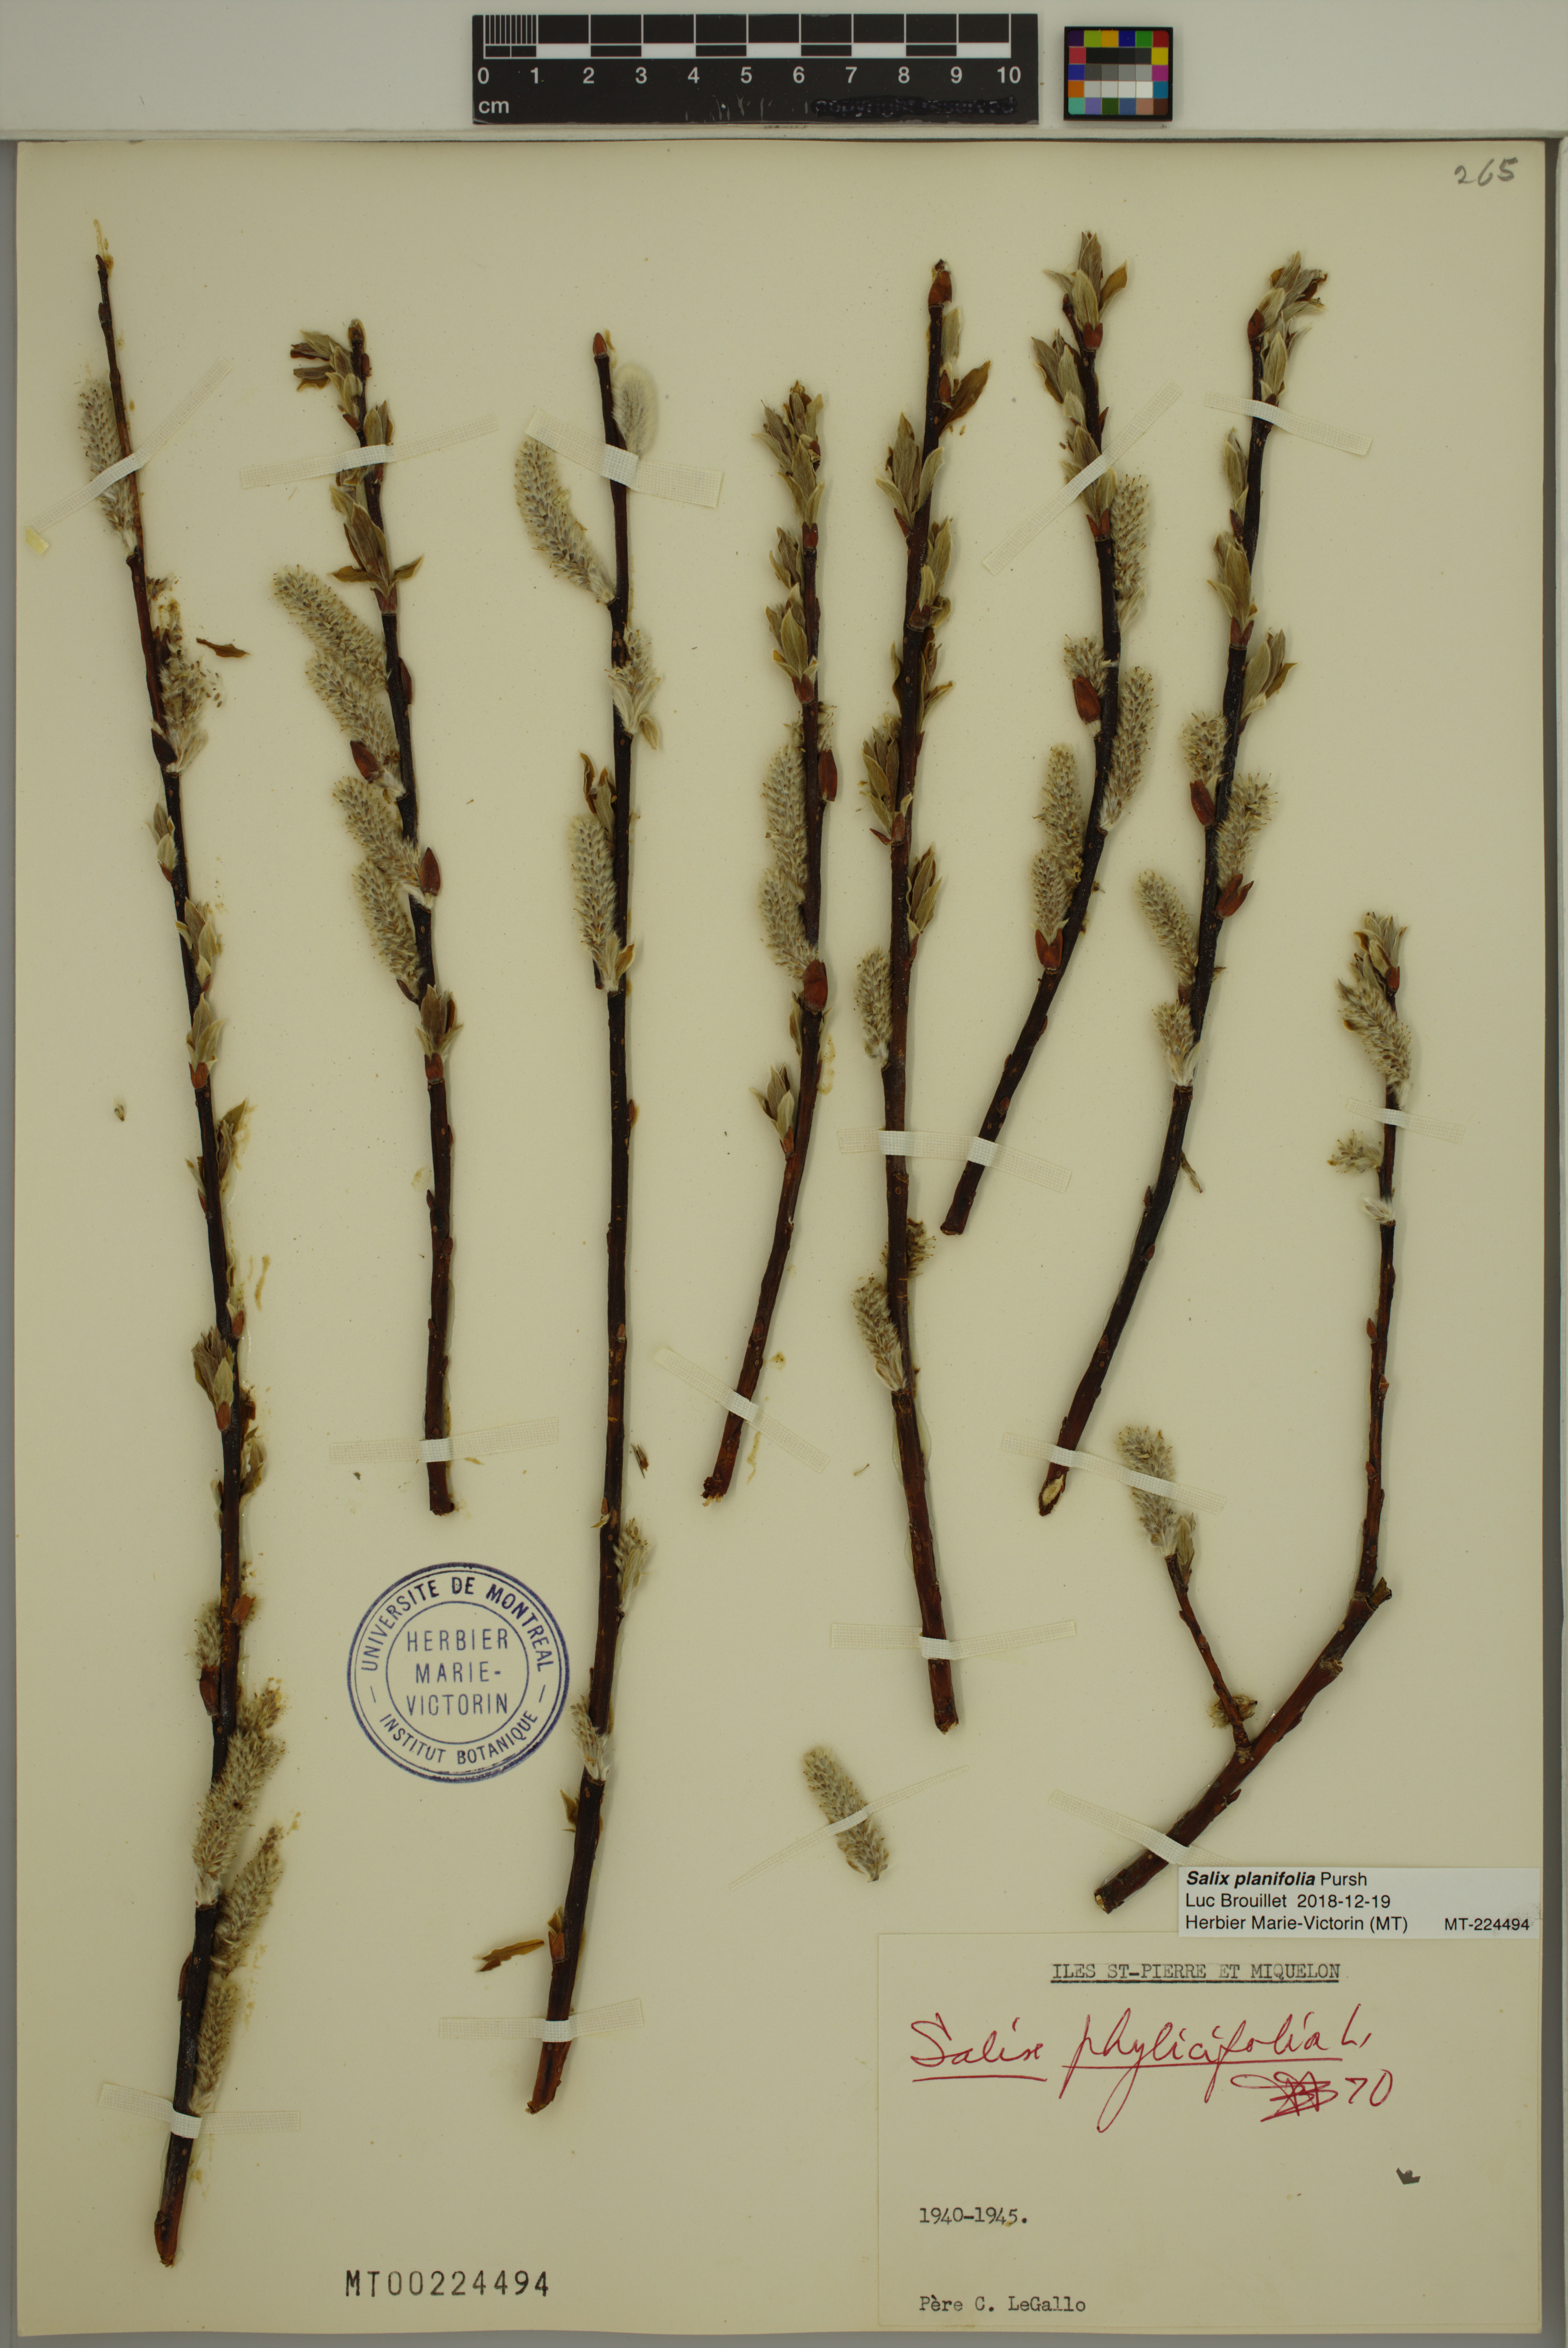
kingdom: Plantae
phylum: Tracheophyta
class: Magnoliopsida
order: Malpighiales
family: Salicaceae
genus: Salix
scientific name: Salix planifolia
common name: Mountain willow
